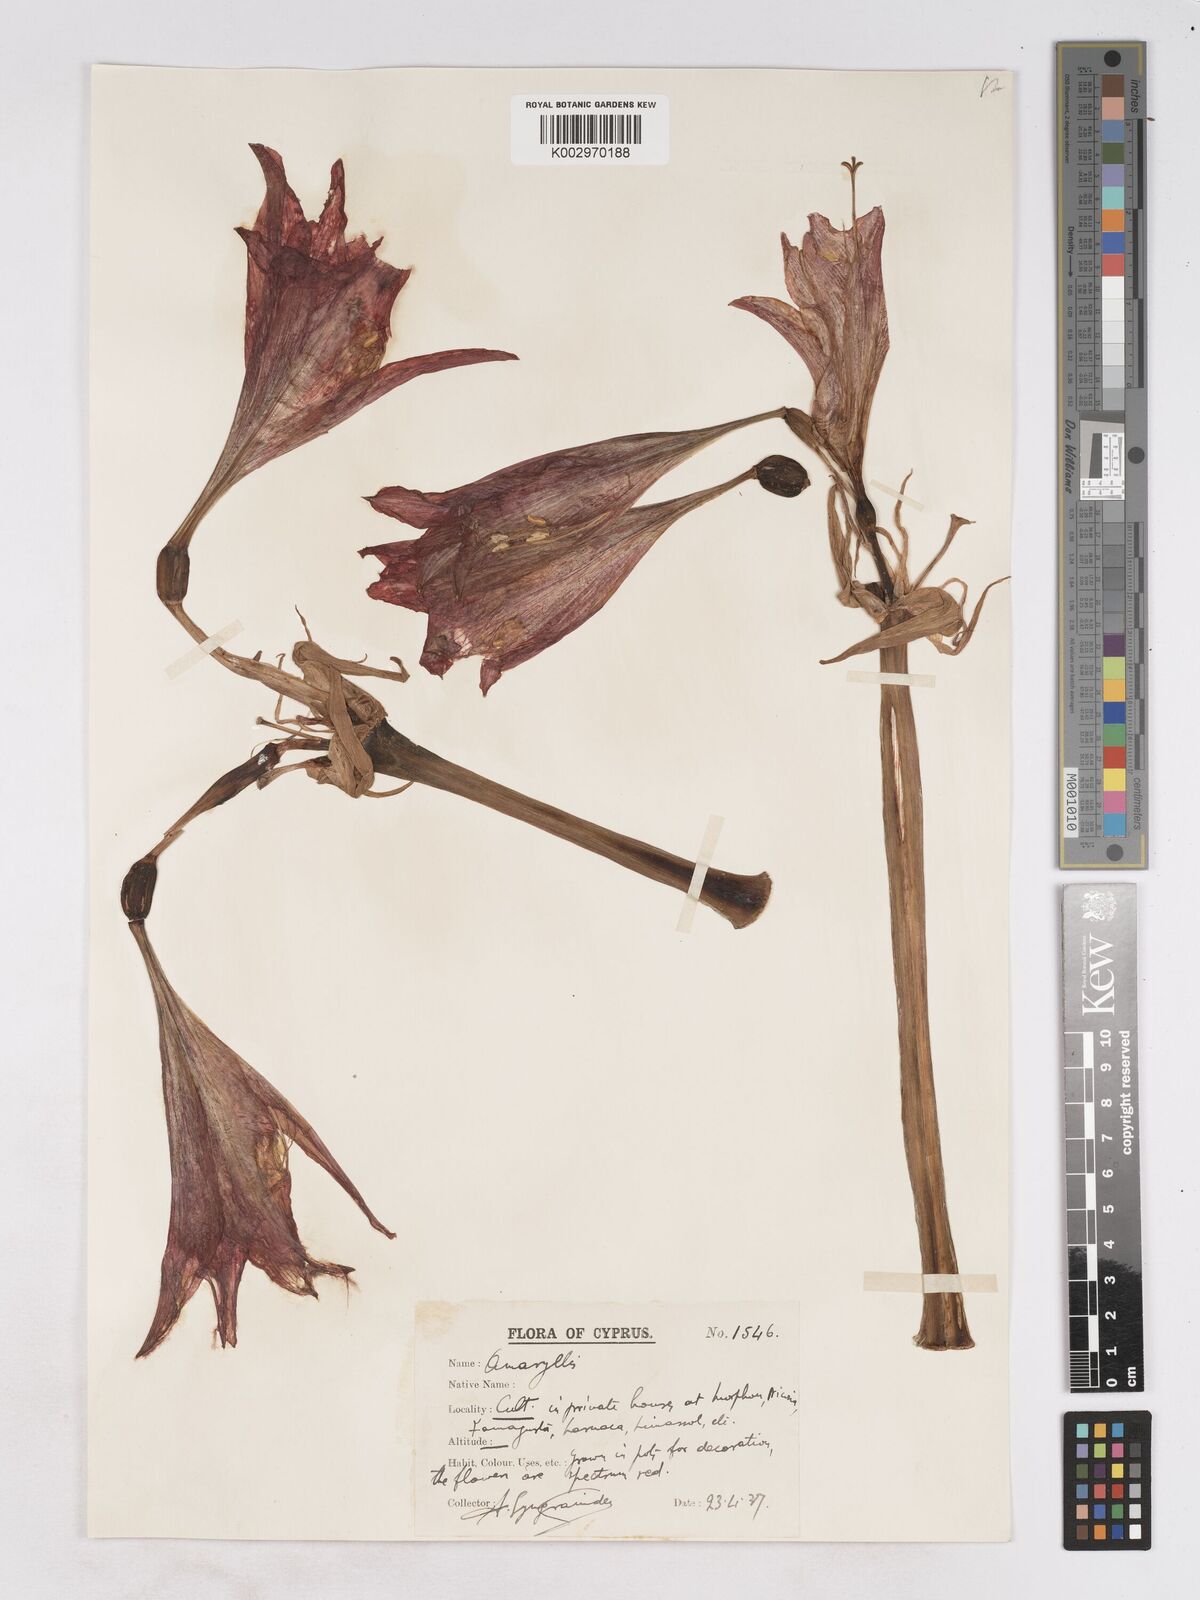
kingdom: Plantae
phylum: Tracheophyta
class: Liliopsida
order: Asparagales
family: Amaryllidaceae
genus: Hippeastrum
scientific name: Hippeastrum johnsonii
